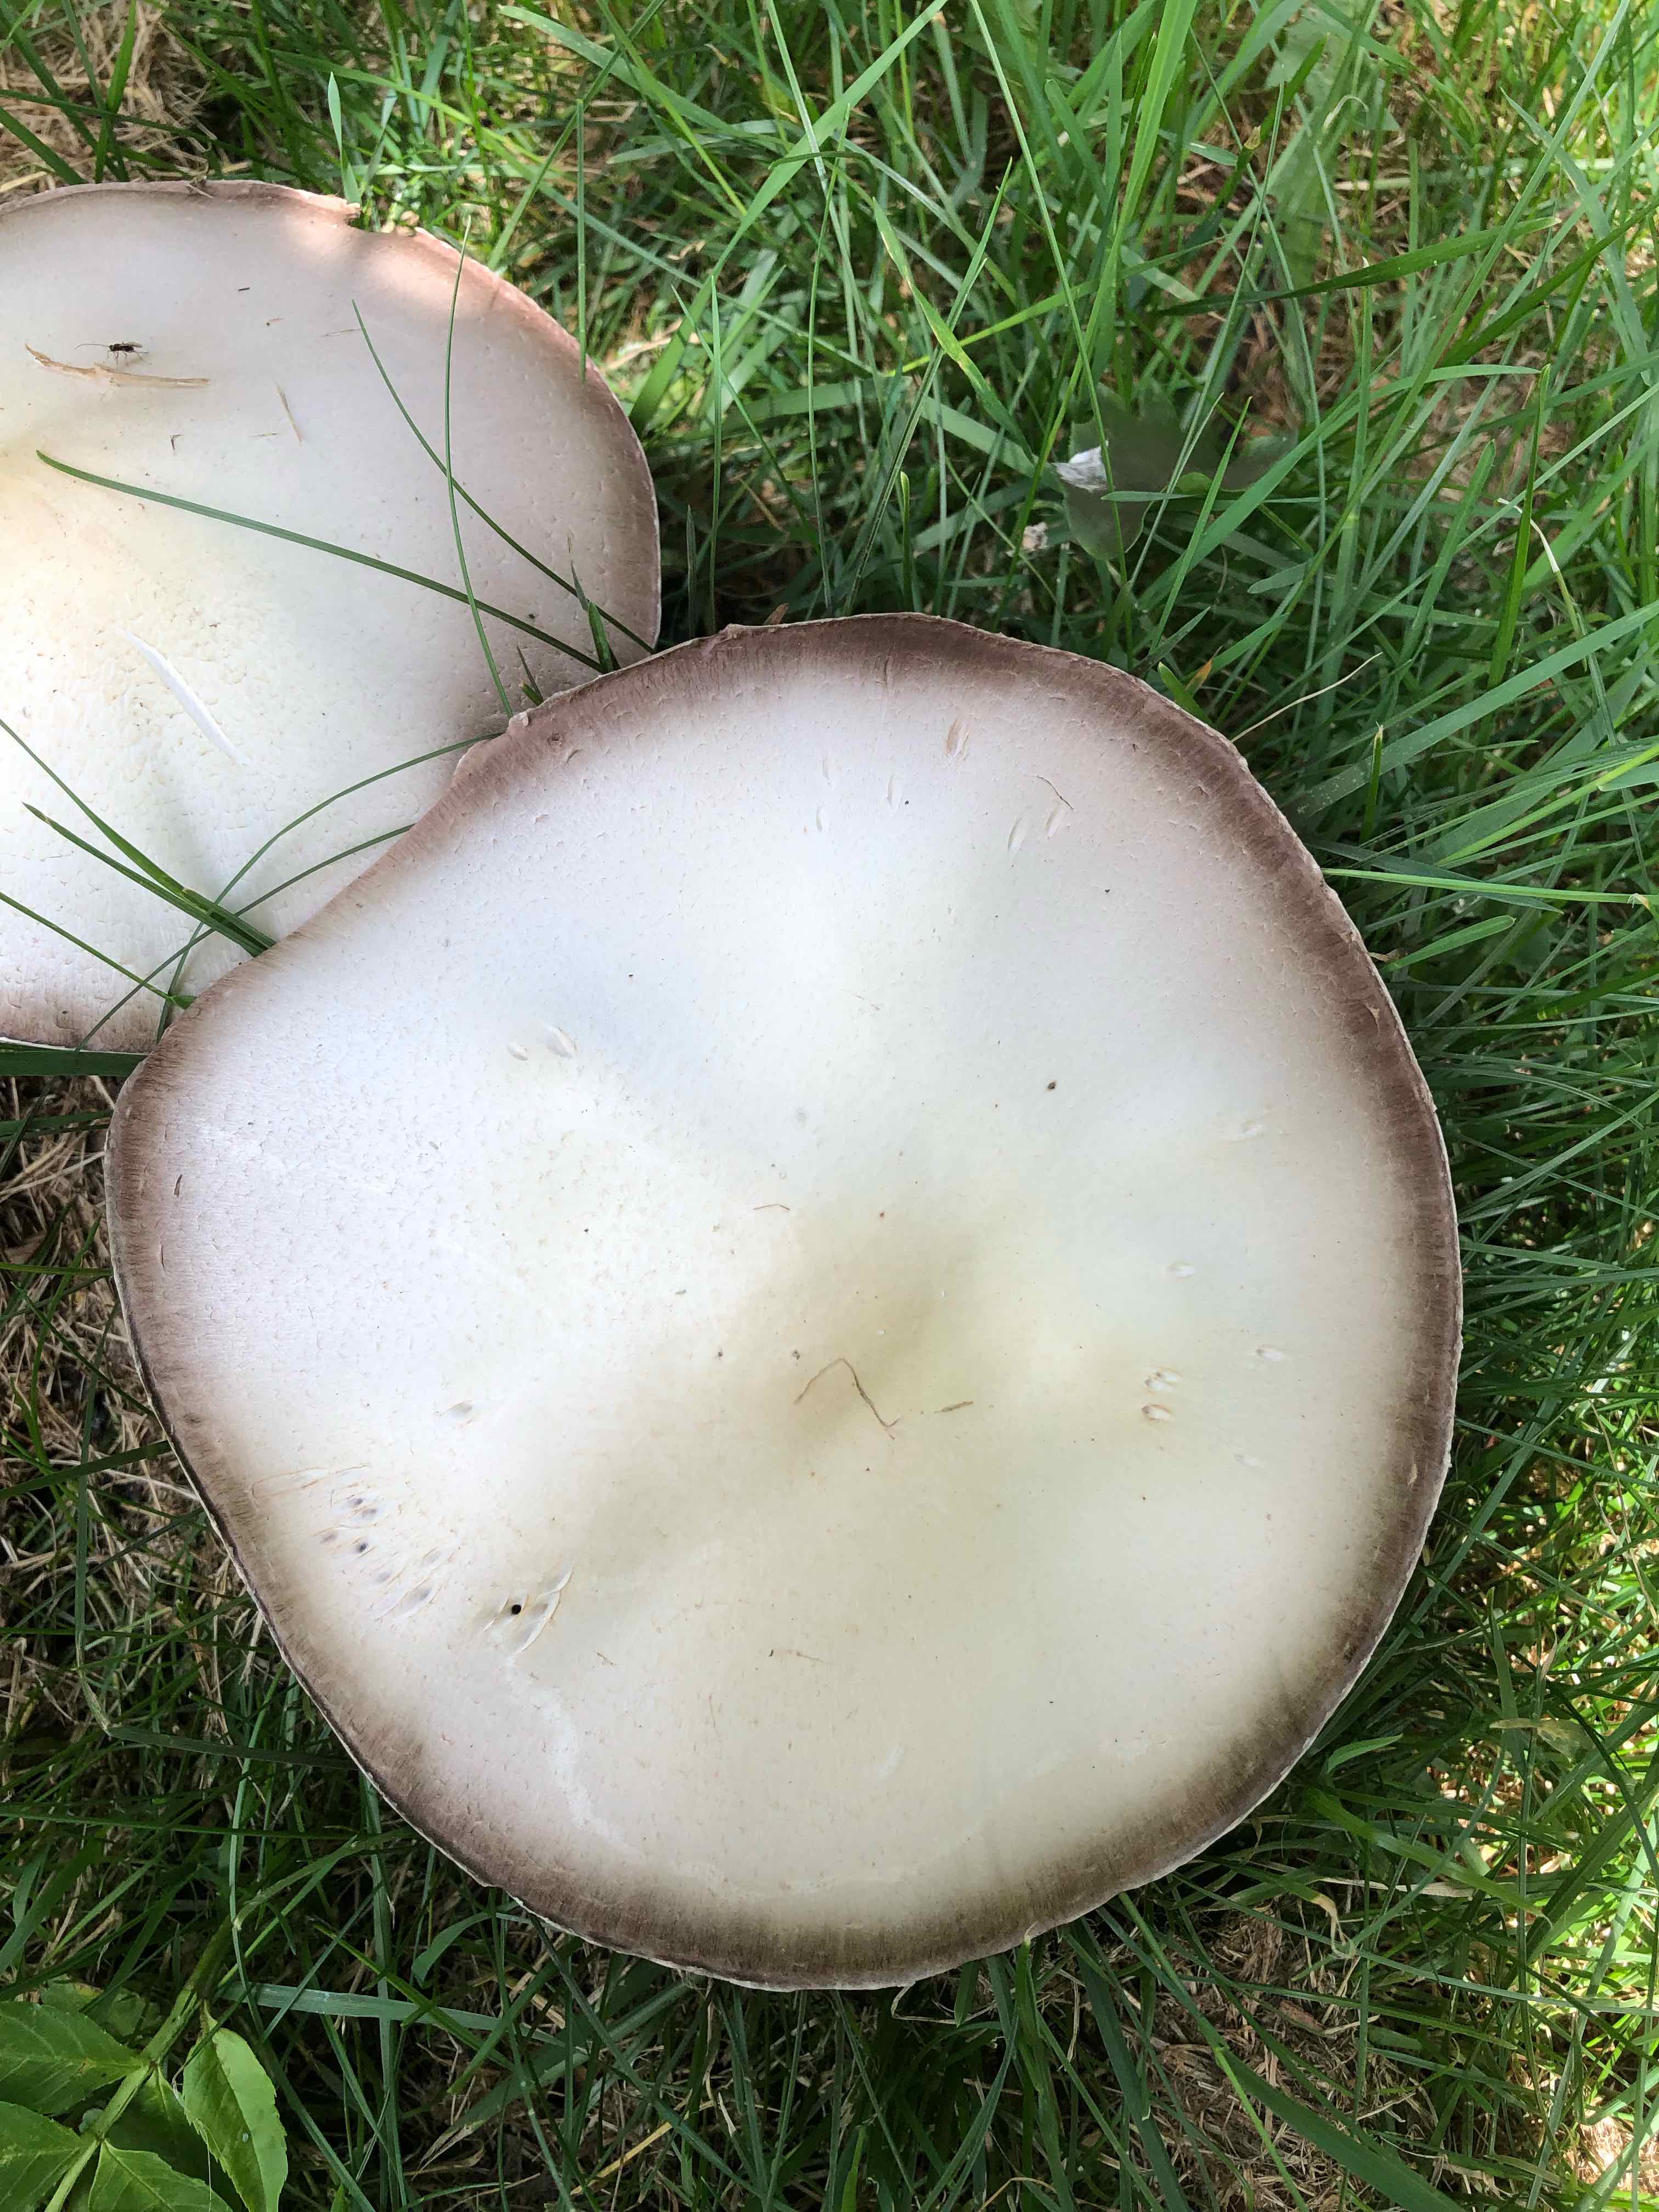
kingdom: Fungi
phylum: Basidiomycota
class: Agaricomycetes
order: Agaricales
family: Agaricaceae
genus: Agaricus
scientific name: Agaricus
